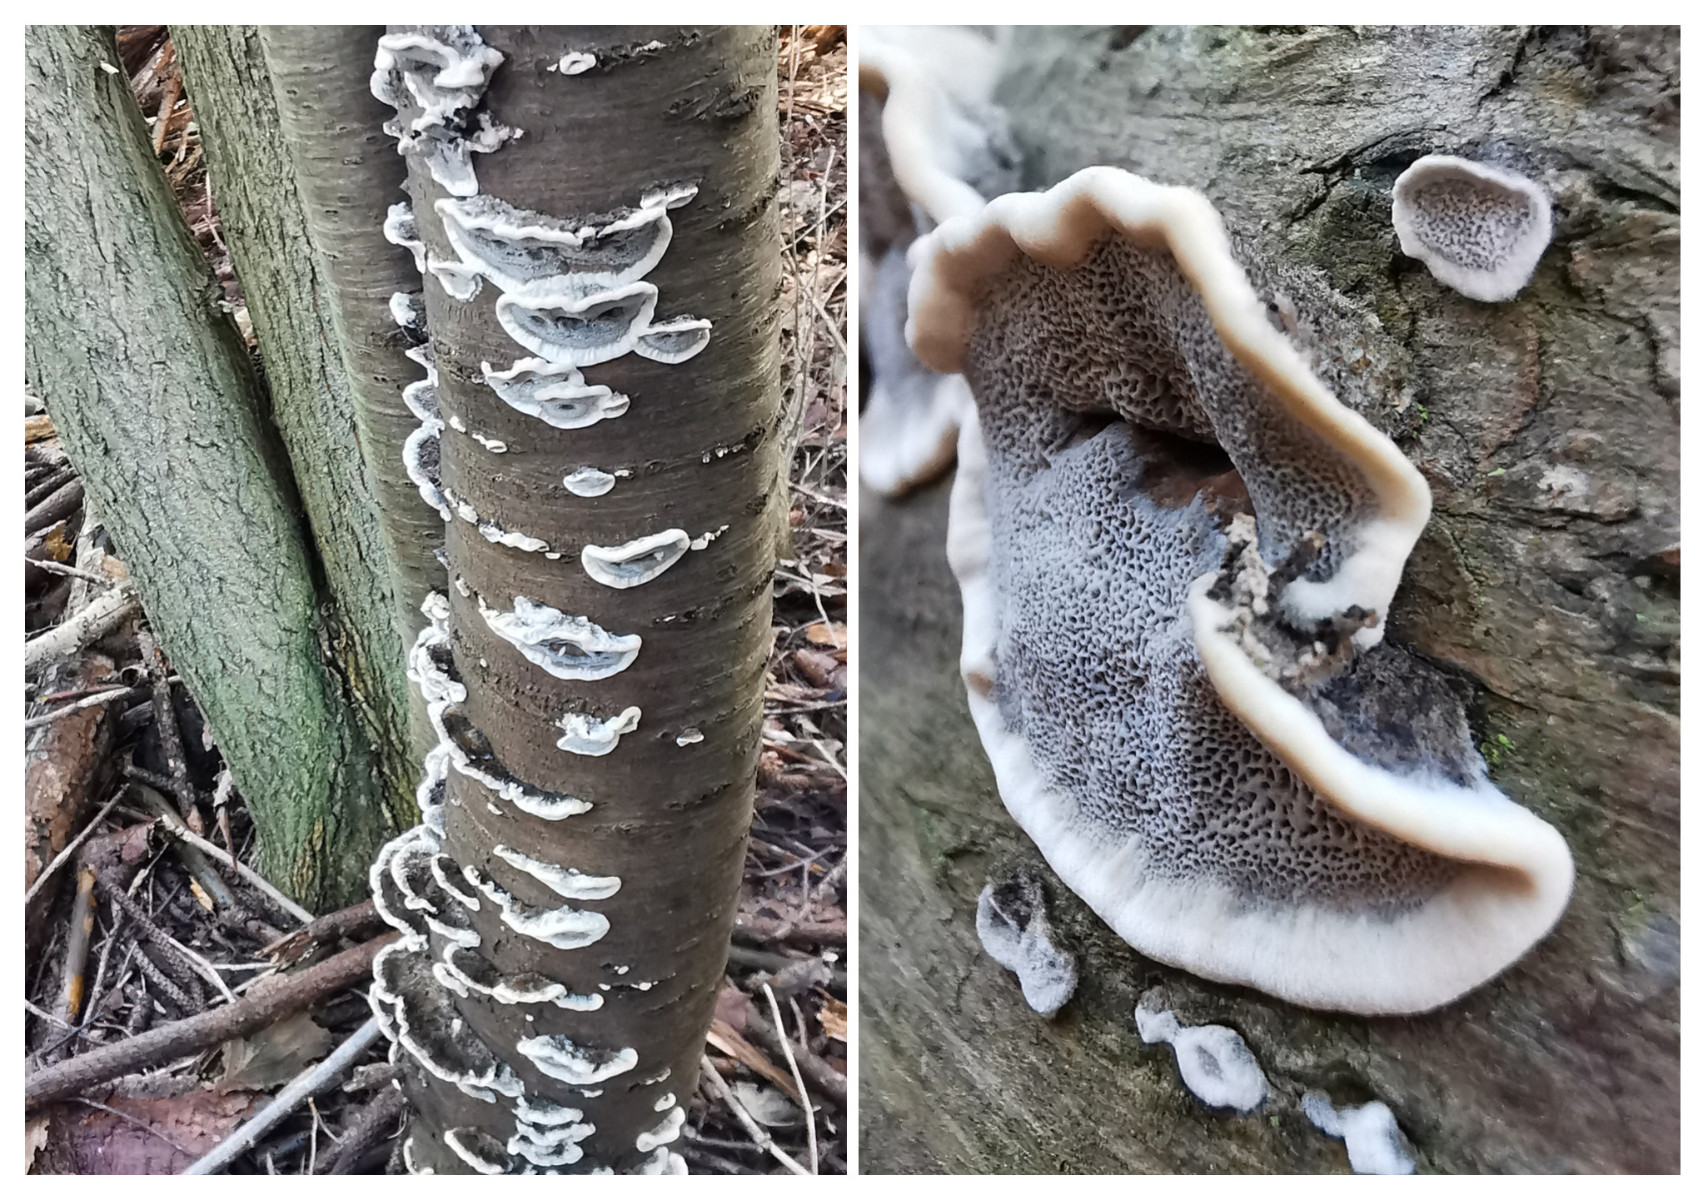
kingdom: Fungi
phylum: Basidiomycota
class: Agaricomycetes
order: Polyporales
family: Phanerochaetaceae
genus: Bjerkandera
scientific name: Bjerkandera adusta
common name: sveden sodporesvamp
